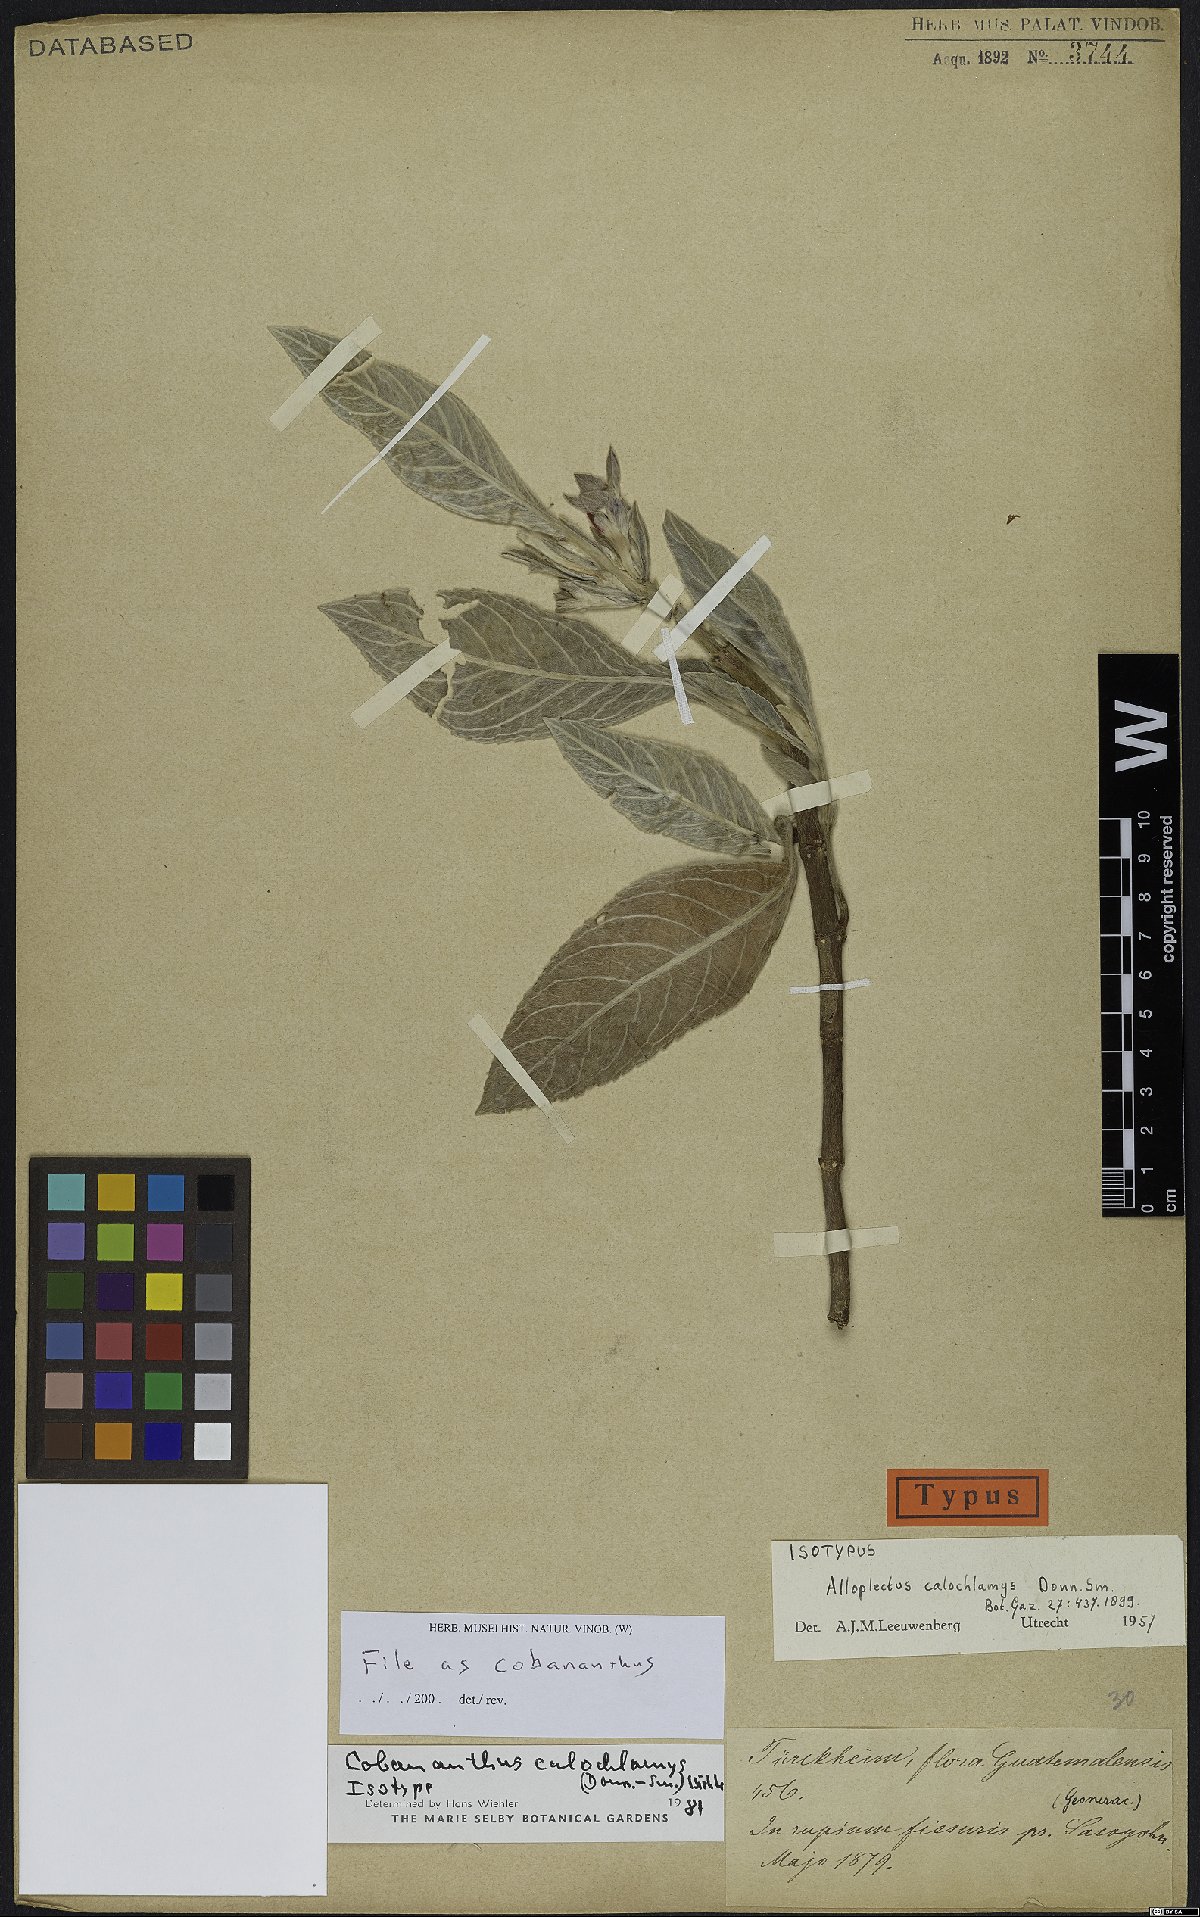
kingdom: Plantae
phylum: Tracheophyta
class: Magnoliopsida
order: Lamiales
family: Gesneriaceae
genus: Cobananthus
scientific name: Cobananthus calochlamys
